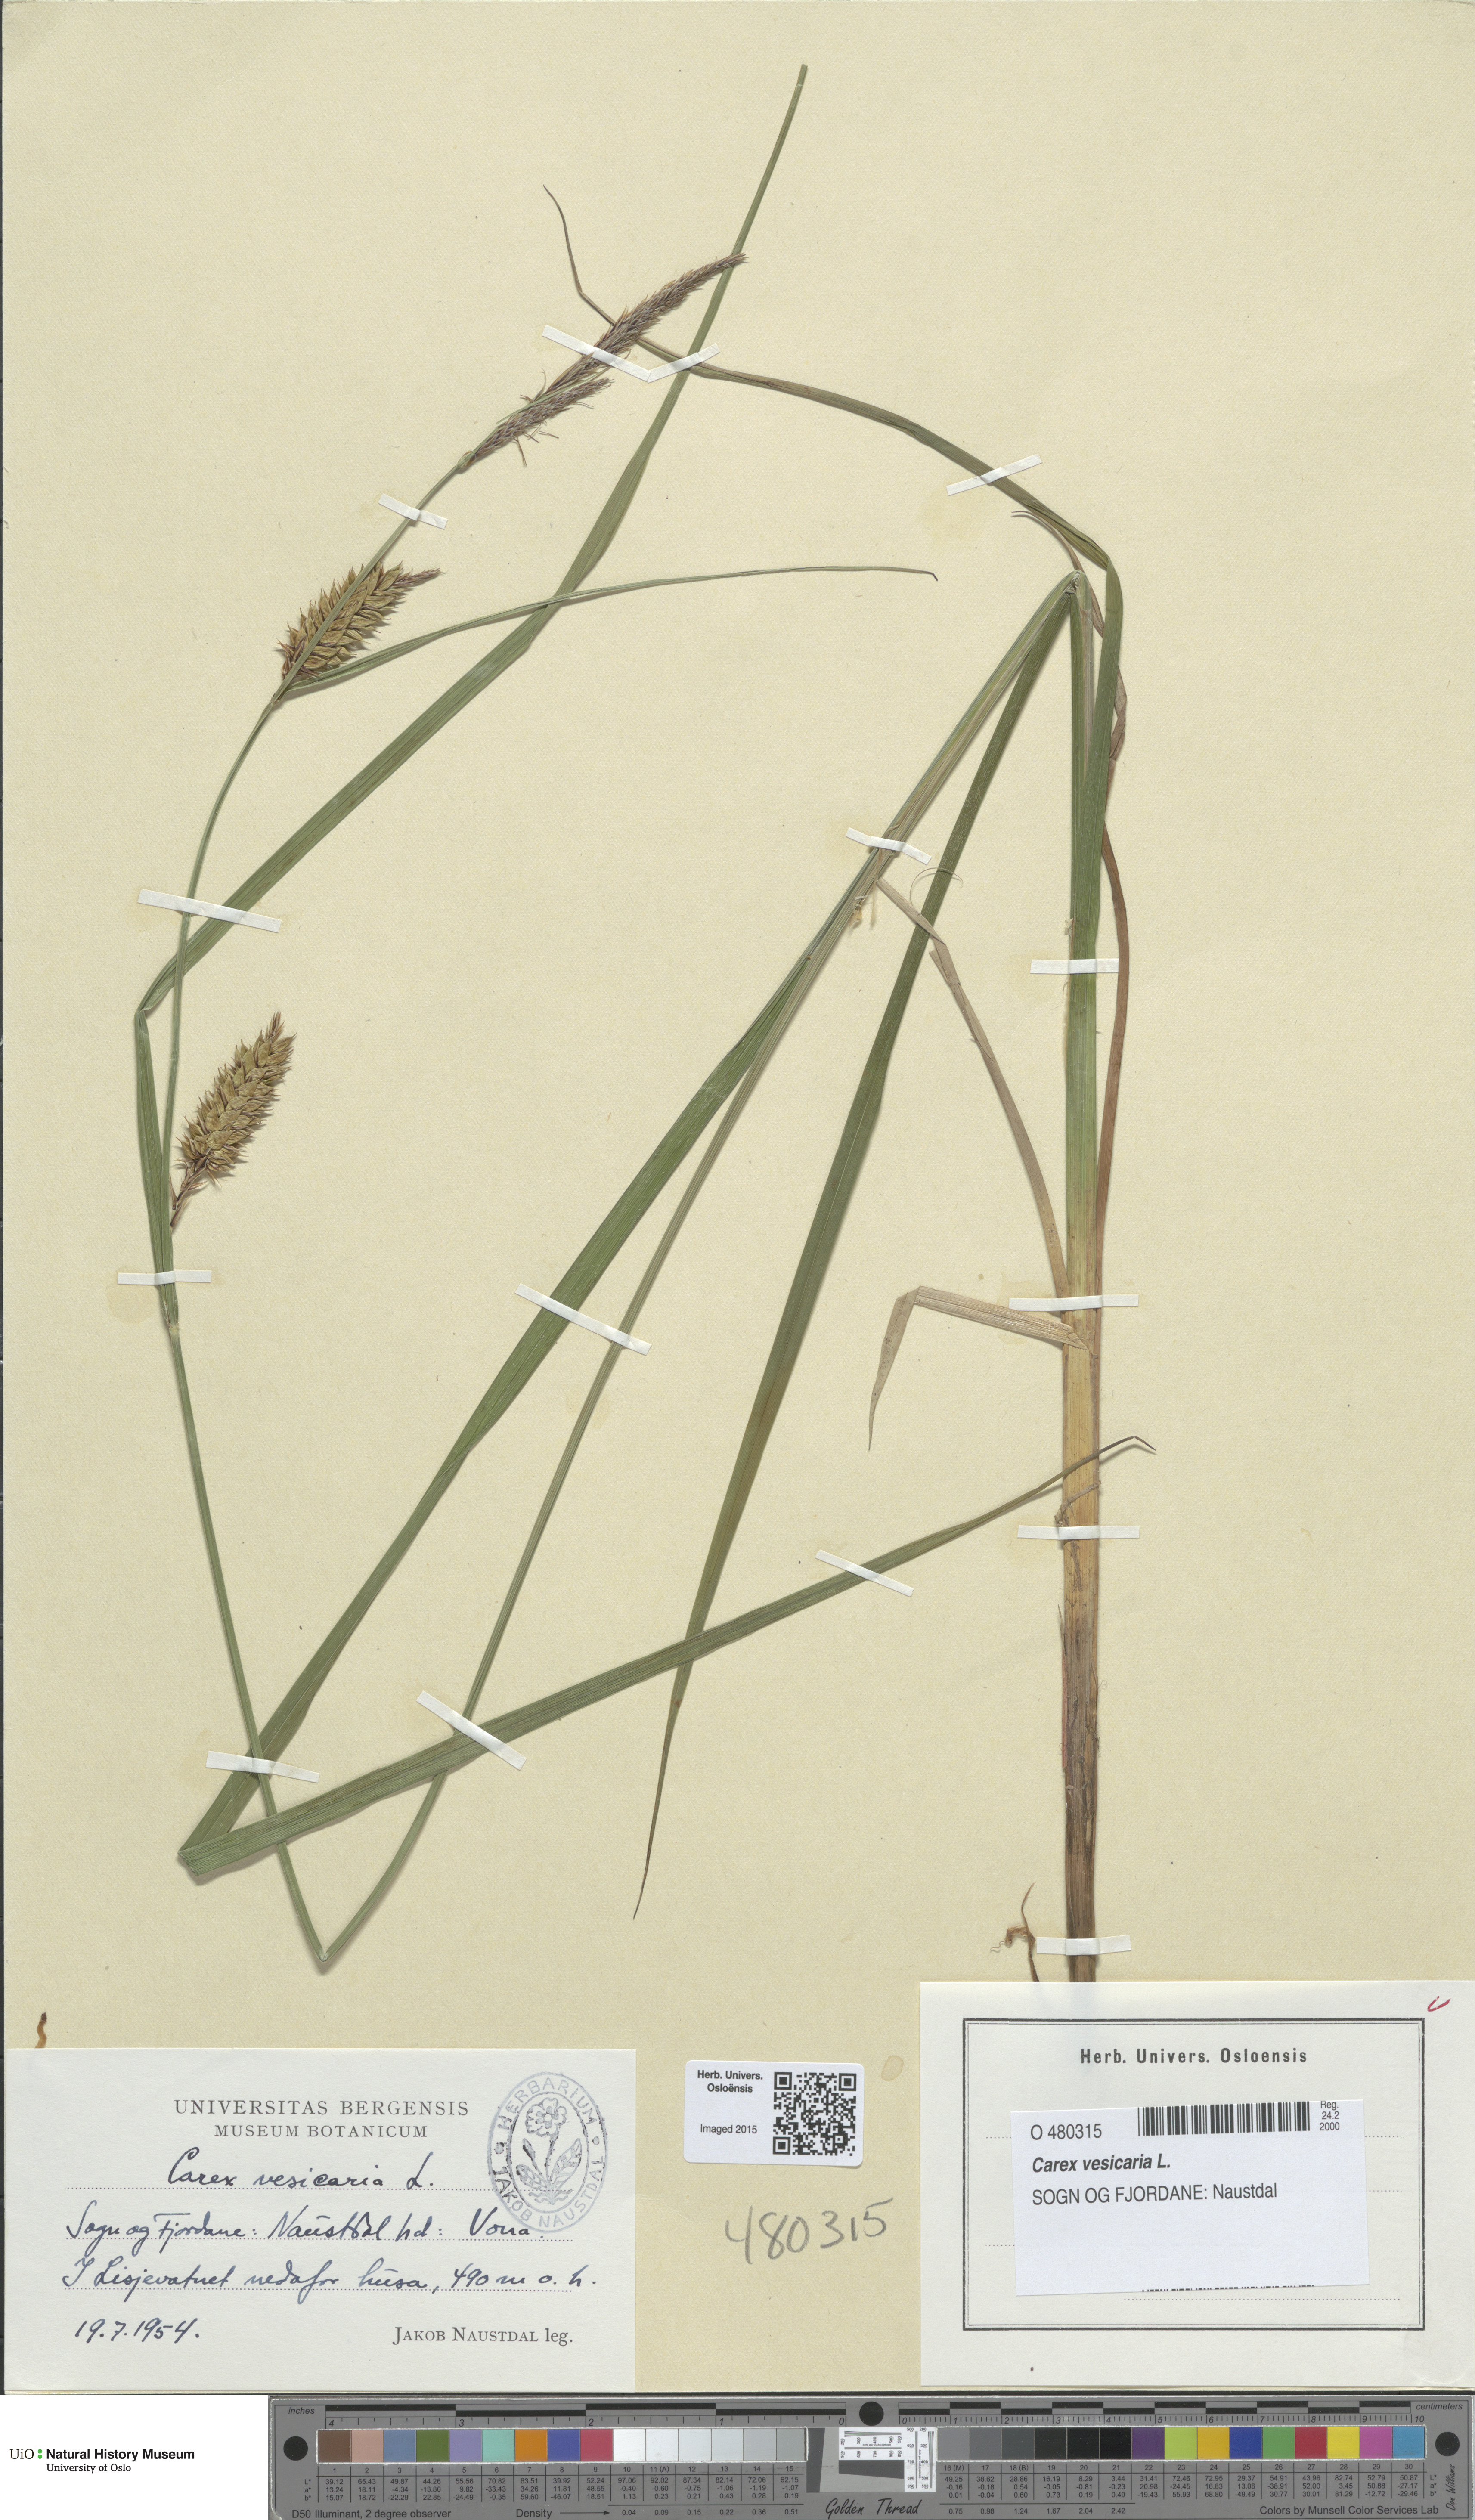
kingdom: Plantae
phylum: Tracheophyta
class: Liliopsida
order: Poales
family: Cyperaceae
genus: Carex
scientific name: Carex vesicaria
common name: Bladder-sedge
